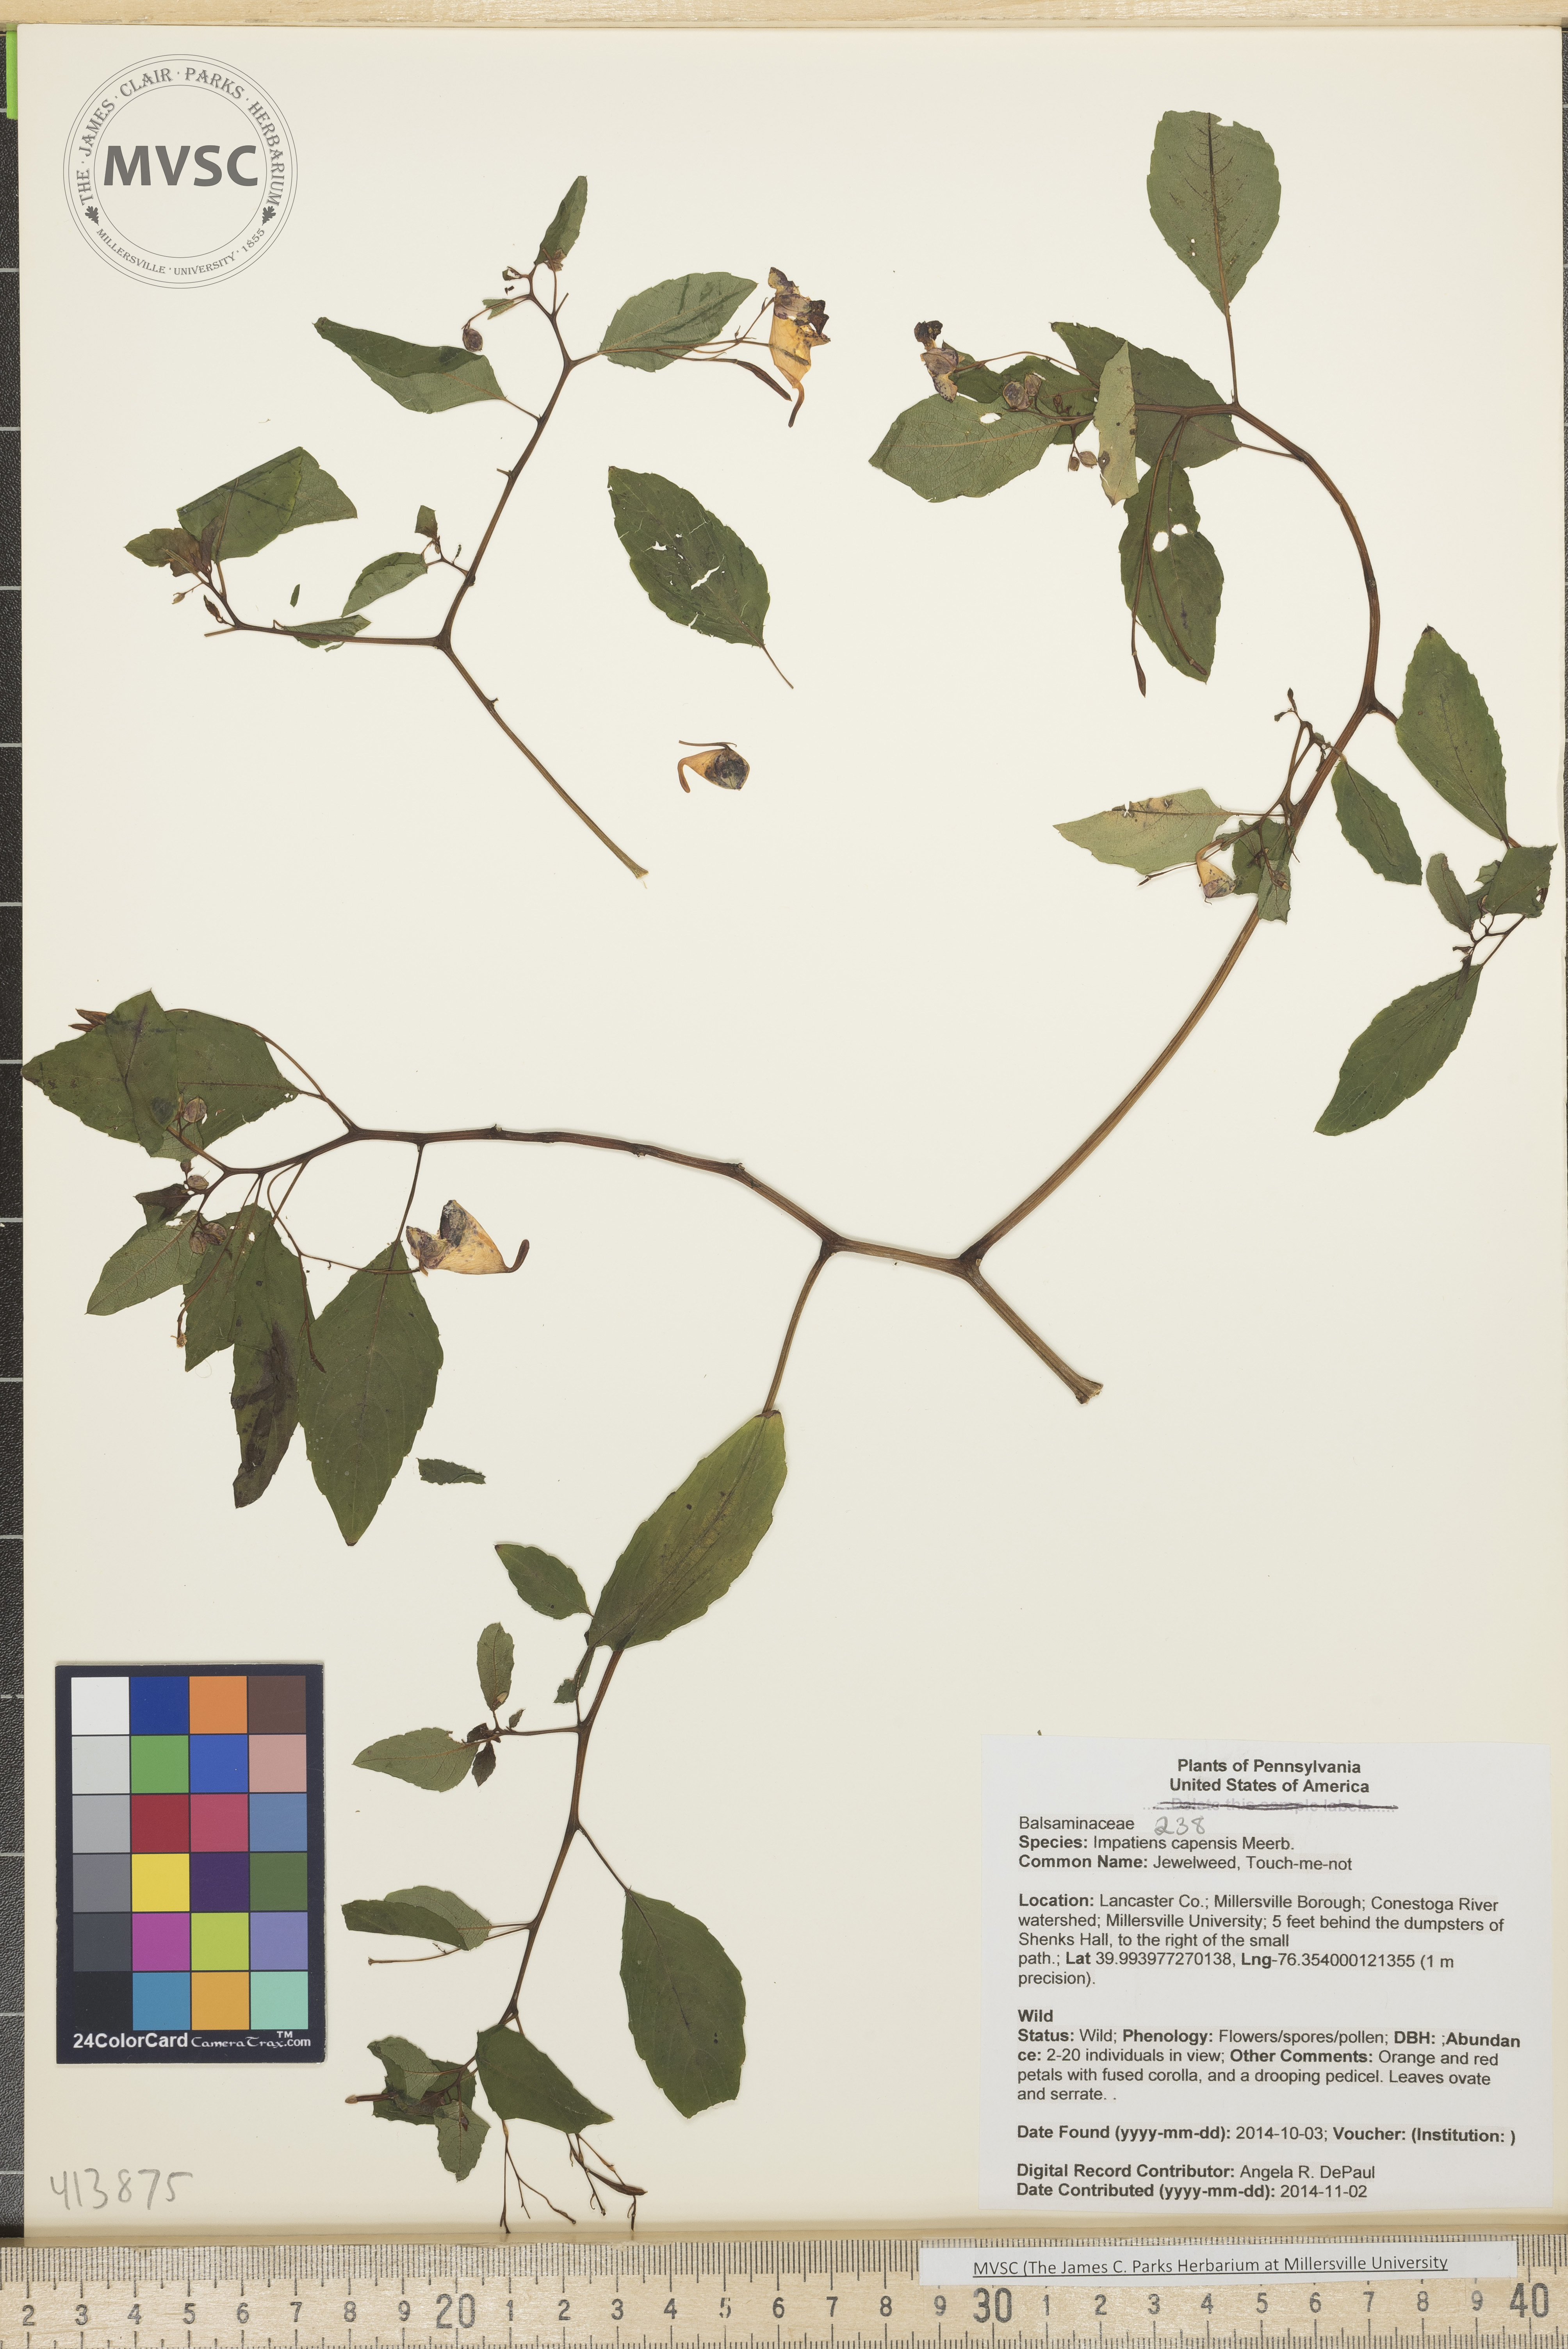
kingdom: Plantae
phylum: Tracheophyta
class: Magnoliopsida
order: Ericales
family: Balsaminaceae
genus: Impatiens
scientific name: Impatiens capensis
